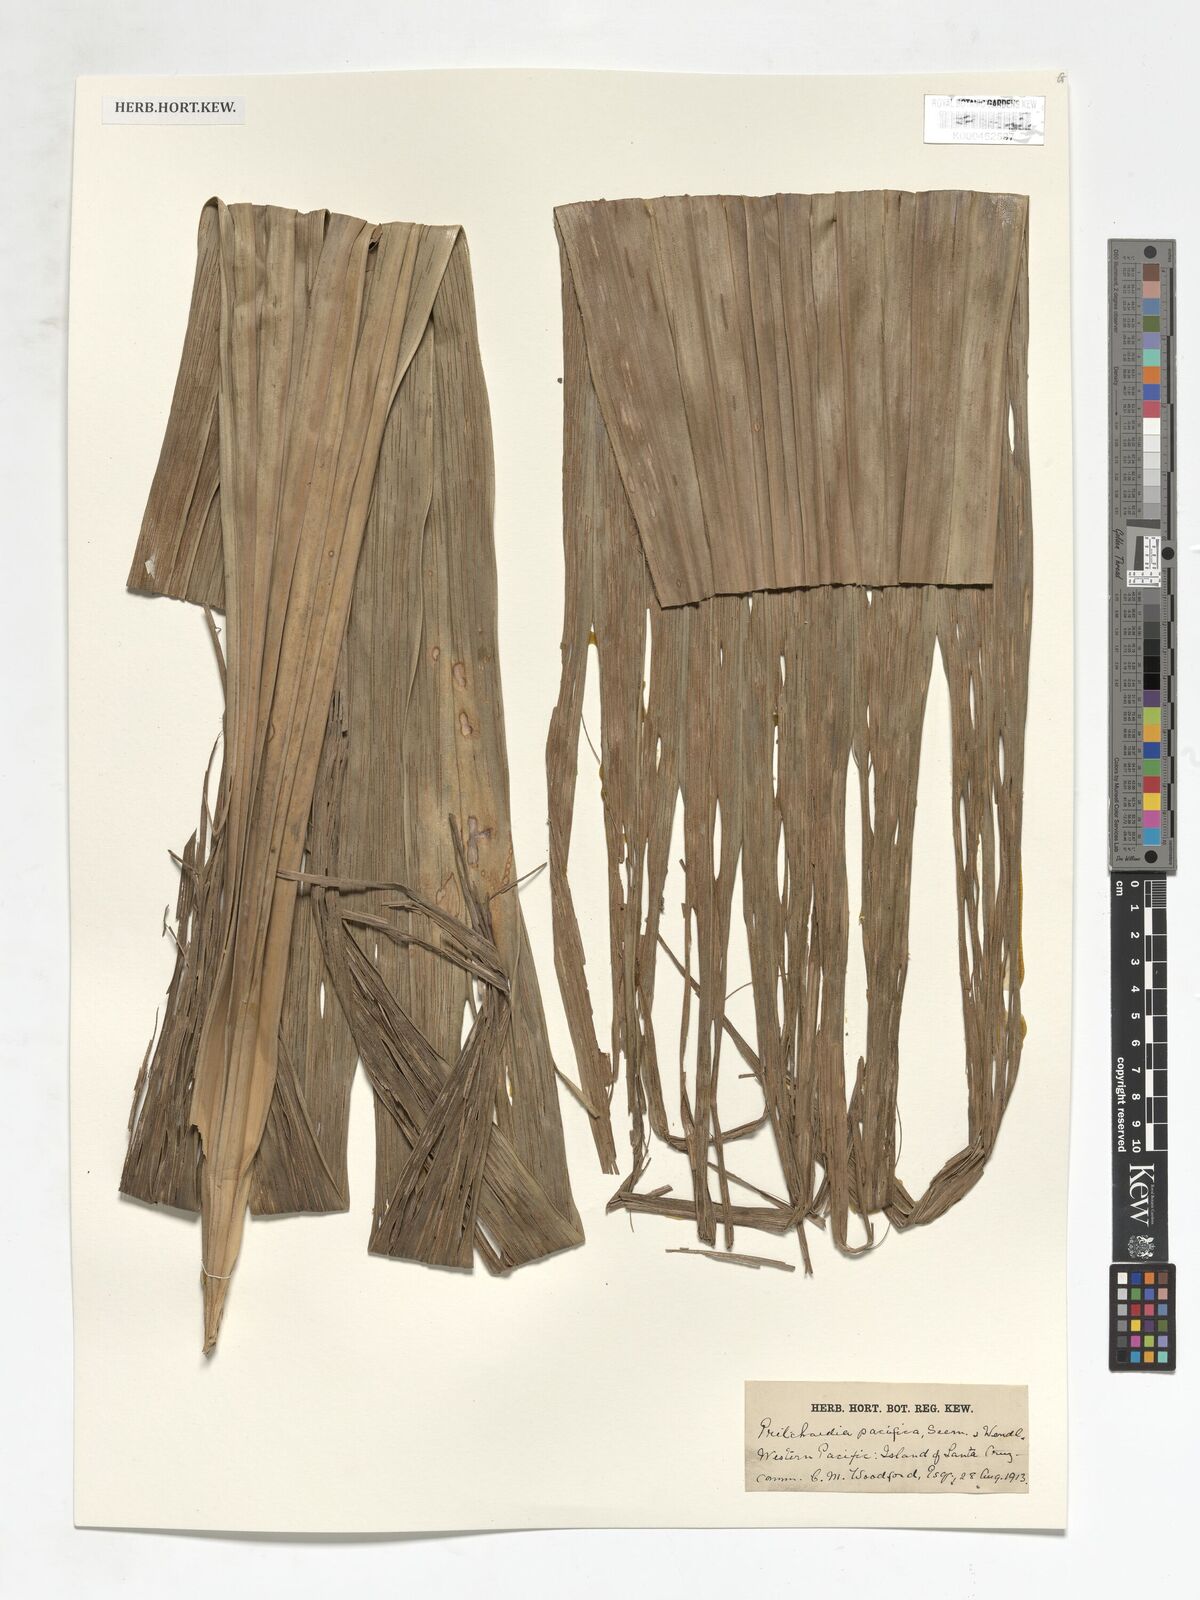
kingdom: Plantae
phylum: Tracheophyta
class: Liliopsida
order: Arecales
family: Arecaceae
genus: Pritchardia
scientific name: Pritchardia pacifica
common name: Fiji fan palm
